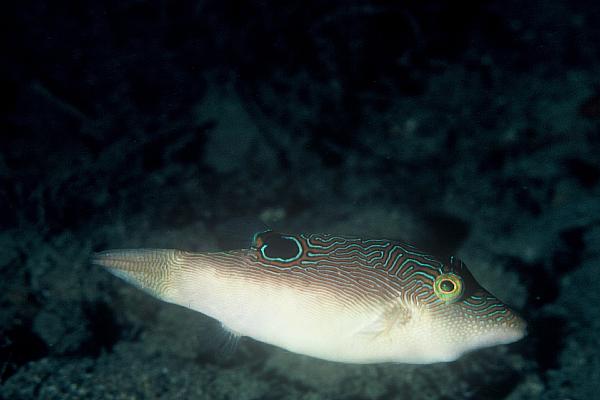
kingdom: Animalia
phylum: Chordata
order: Tetraodontiformes
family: Tetraodontidae
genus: Canthigaster
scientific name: Canthigaster compressa
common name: Compressed toby
